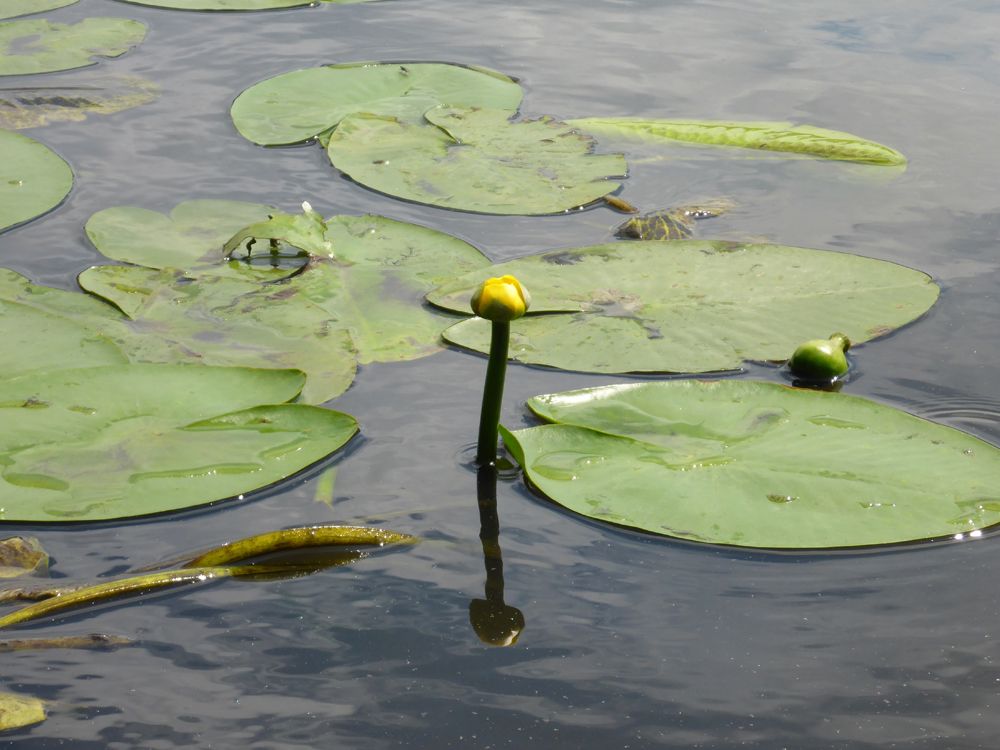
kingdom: Plantae
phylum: Tracheophyta
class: Magnoliopsida
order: Nymphaeales
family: Nymphaeaceae
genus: Nuphar
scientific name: Nuphar lutea
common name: Yellow water-lily
